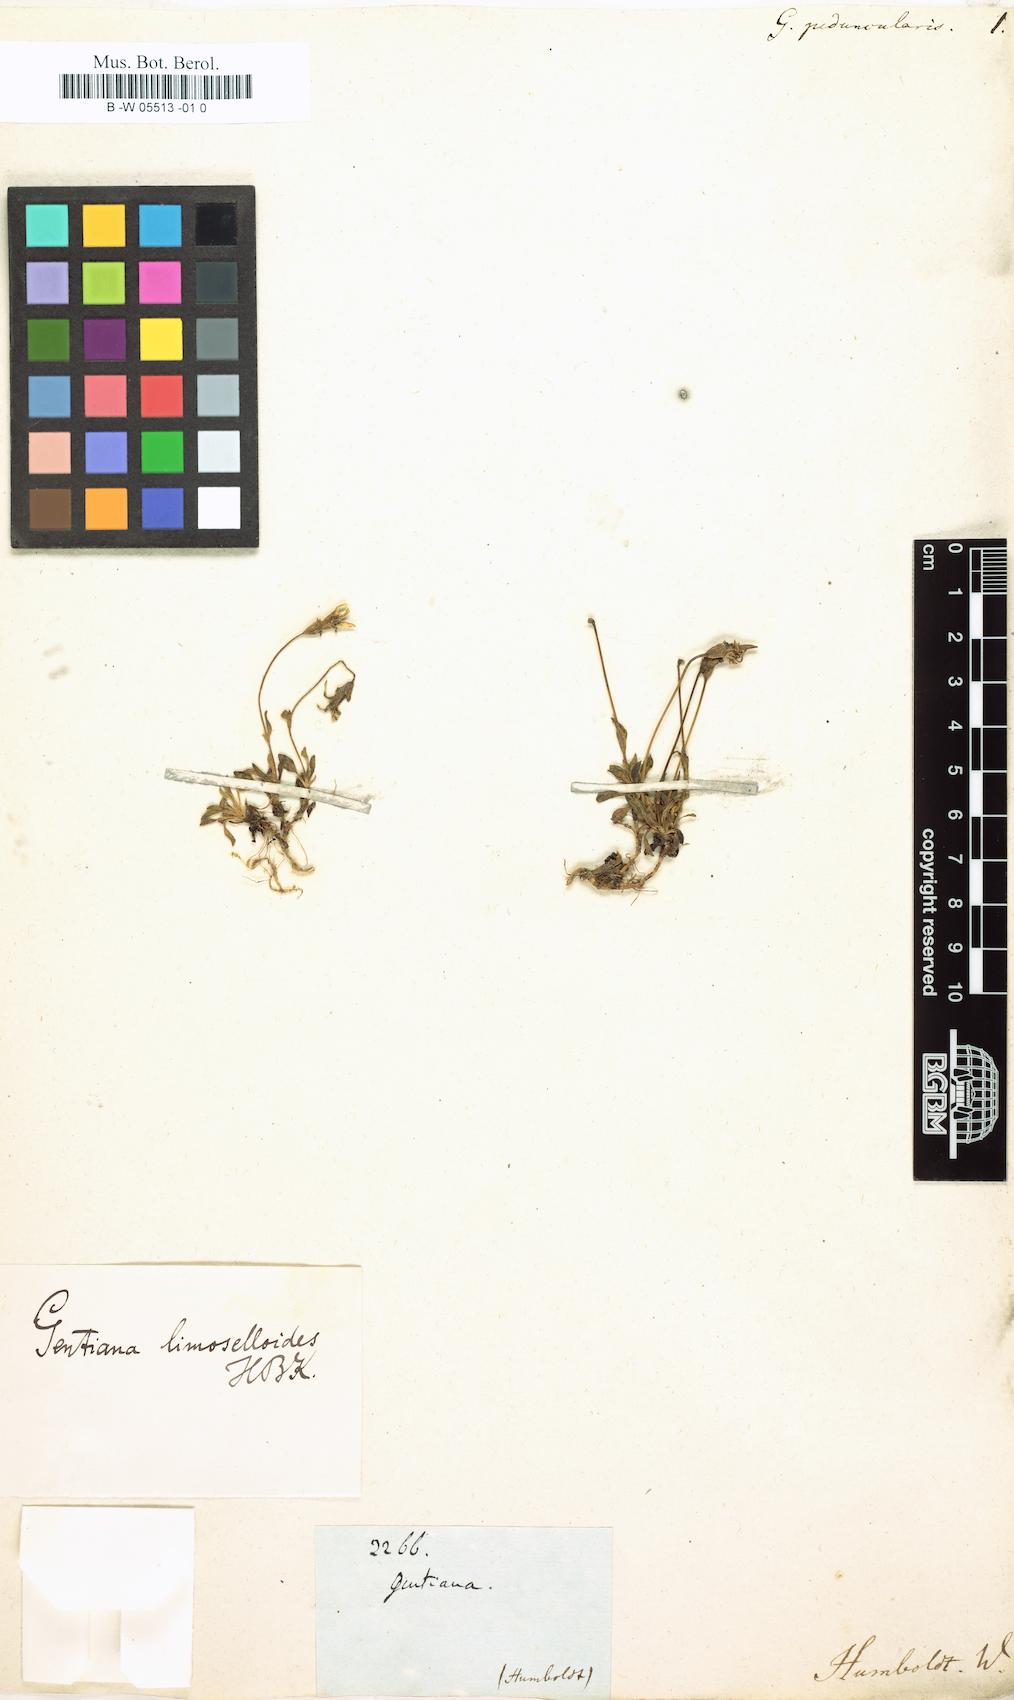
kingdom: Plantae
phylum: Tracheophyta
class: Magnoliopsida
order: Gentianales
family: Gentianaceae
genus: Gentiana
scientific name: Gentiana peduncularis
